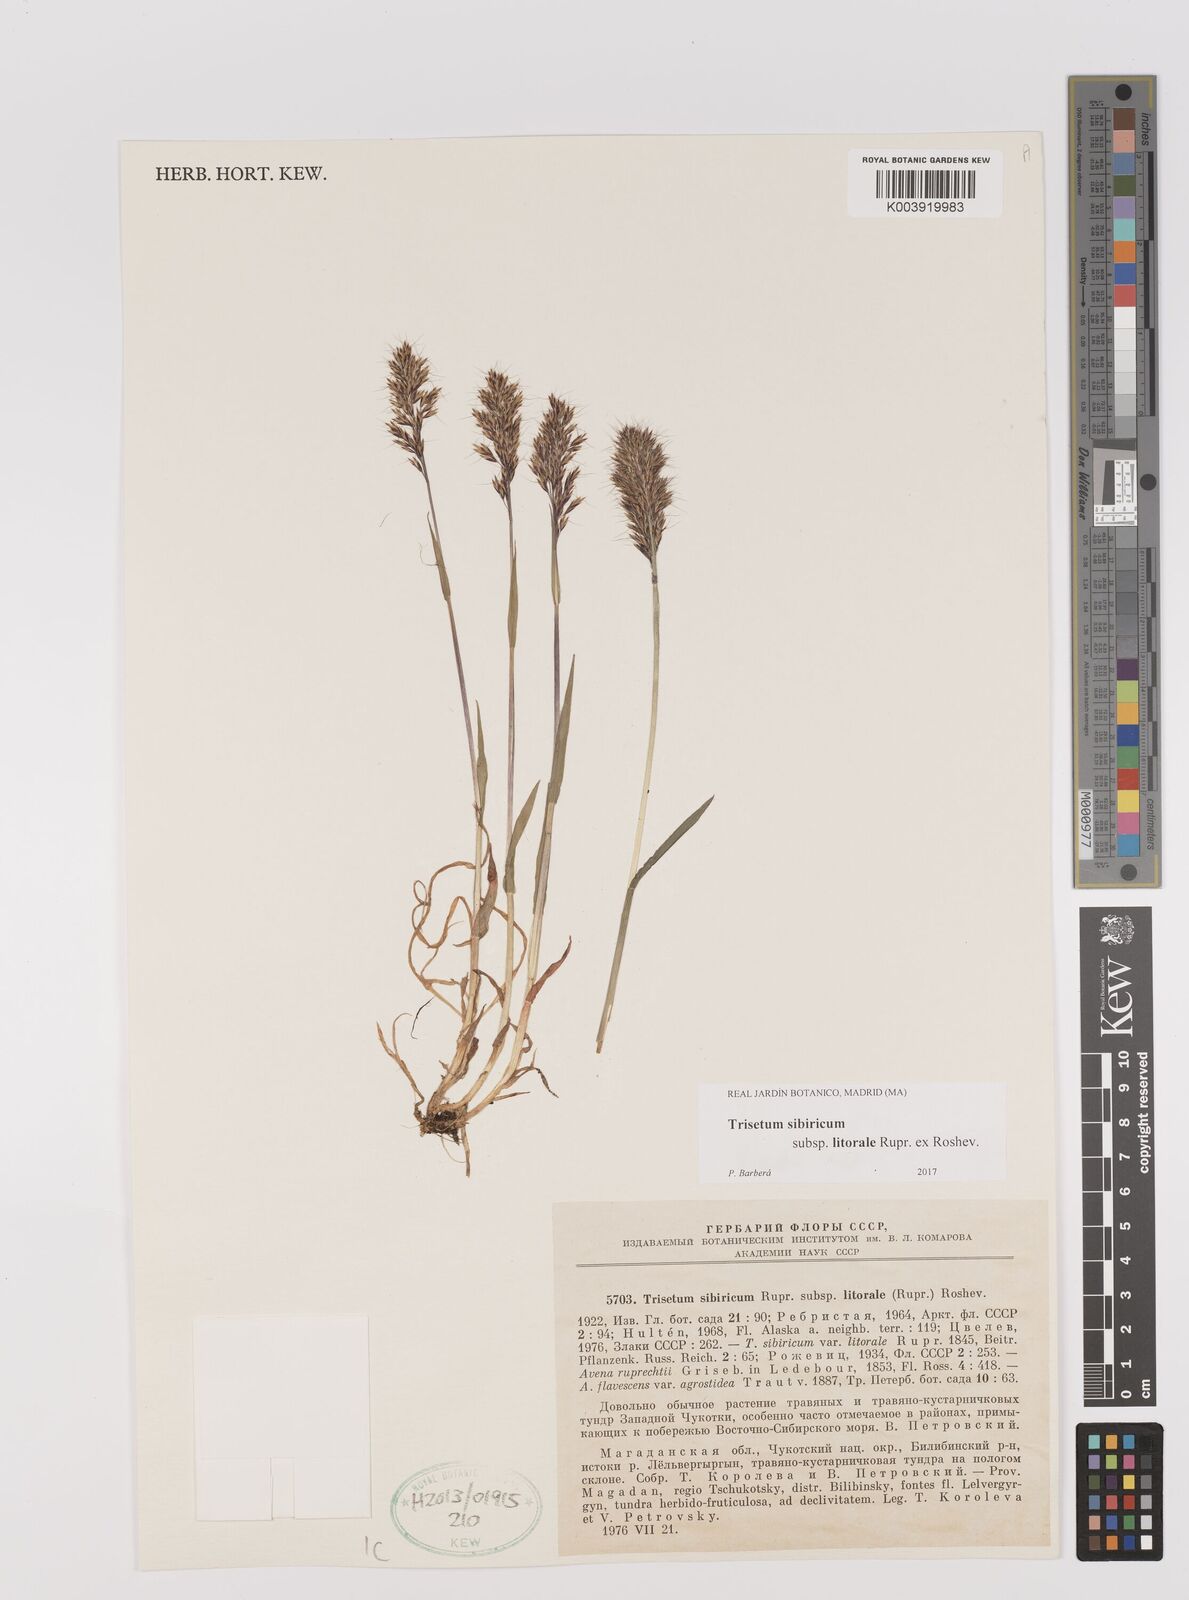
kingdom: Plantae
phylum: Tracheophyta
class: Liliopsida
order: Poales
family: Poaceae
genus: Sibirotrisetum
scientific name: Sibirotrisetum sibiricum
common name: Siberian false oat
